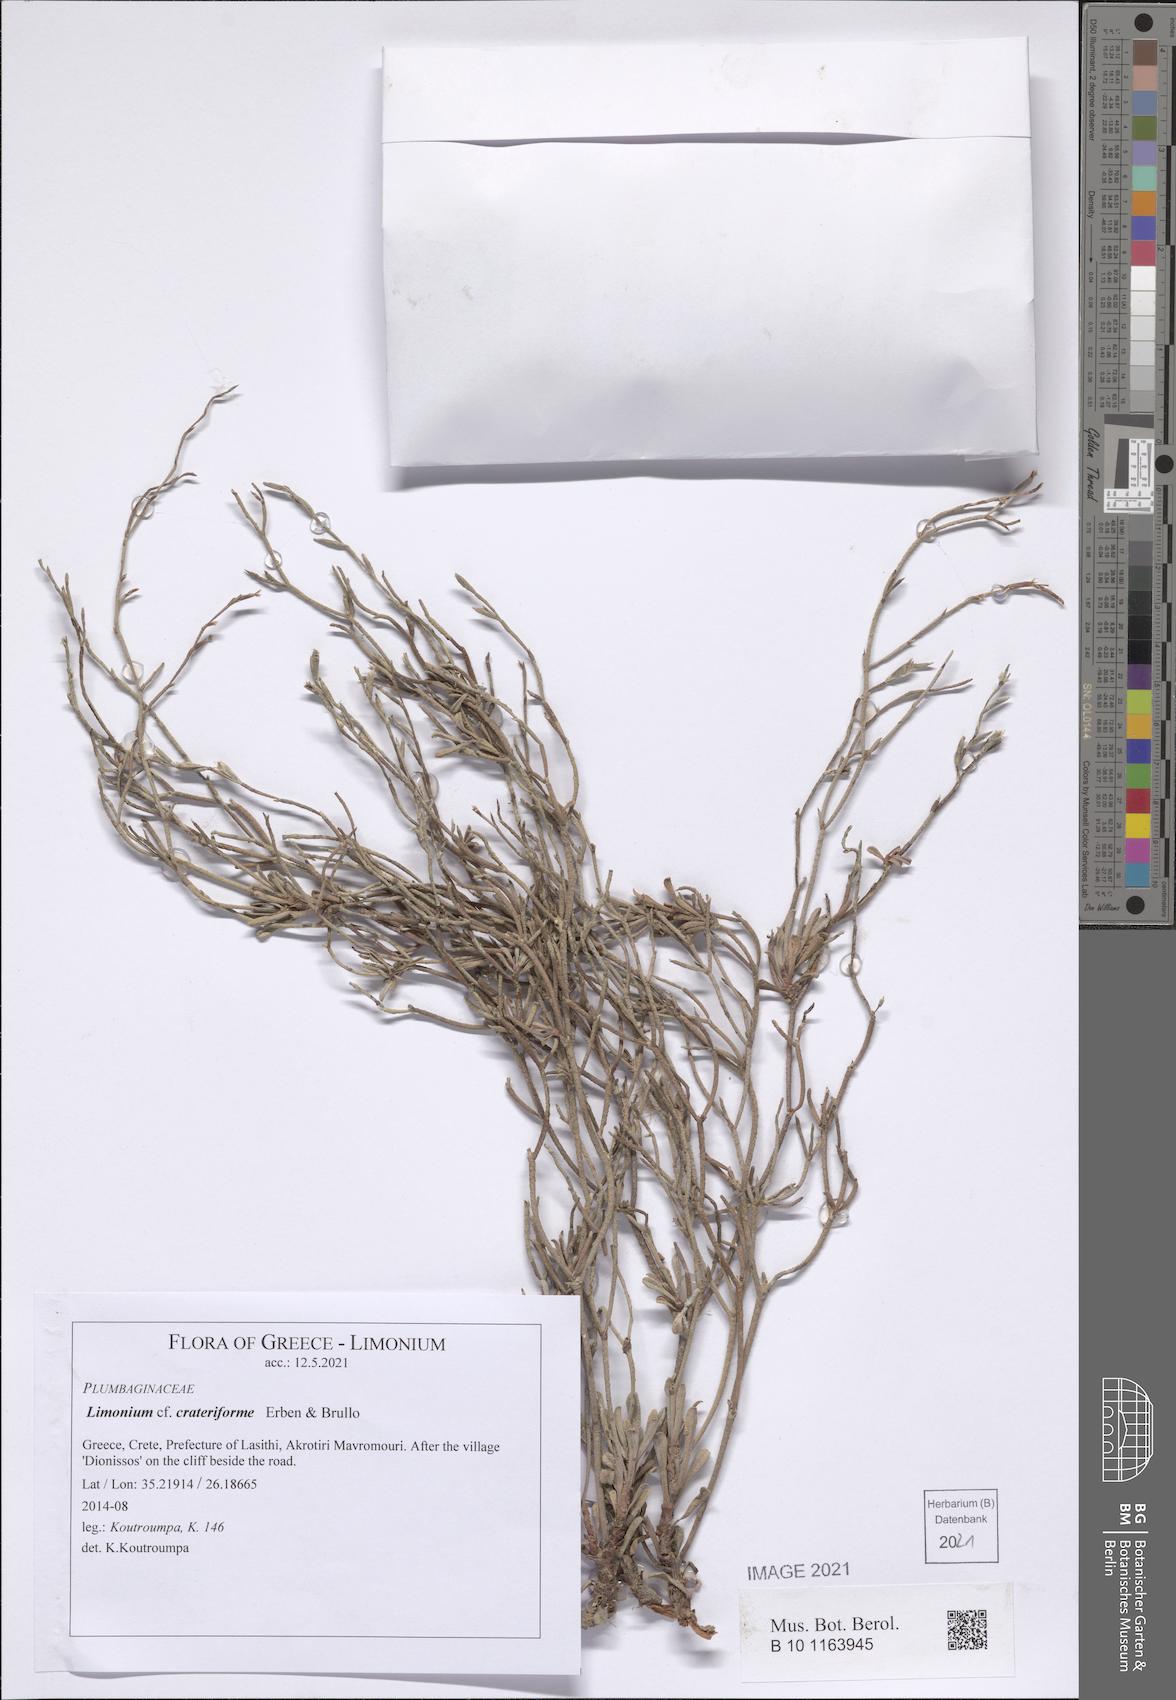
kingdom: Plantae
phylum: Tracheophyta
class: Magnoliopsida
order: Caryophyllales
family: Plumbaginaceae
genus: Limonium
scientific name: Limonium crateriforme
